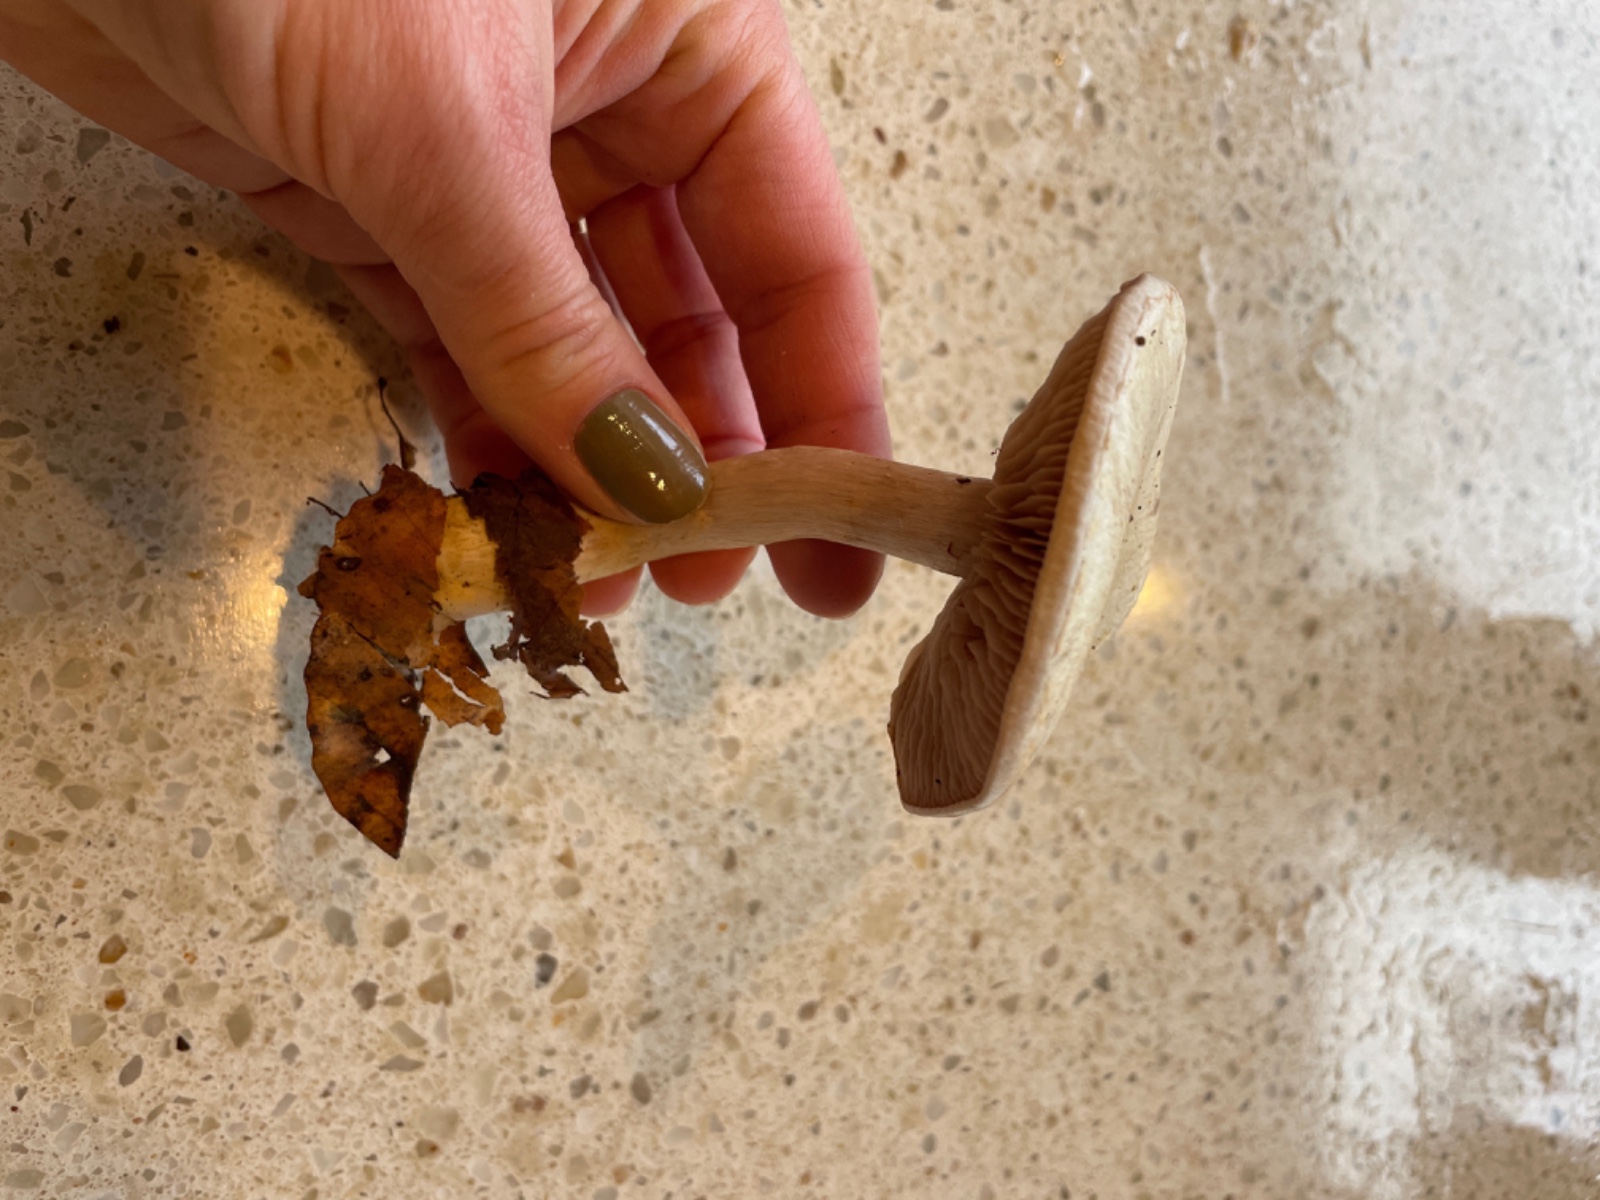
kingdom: Fungi
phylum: Basidiomycota
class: Agaricomycetes
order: Agaricales
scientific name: Agaricales
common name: champignonordenen
